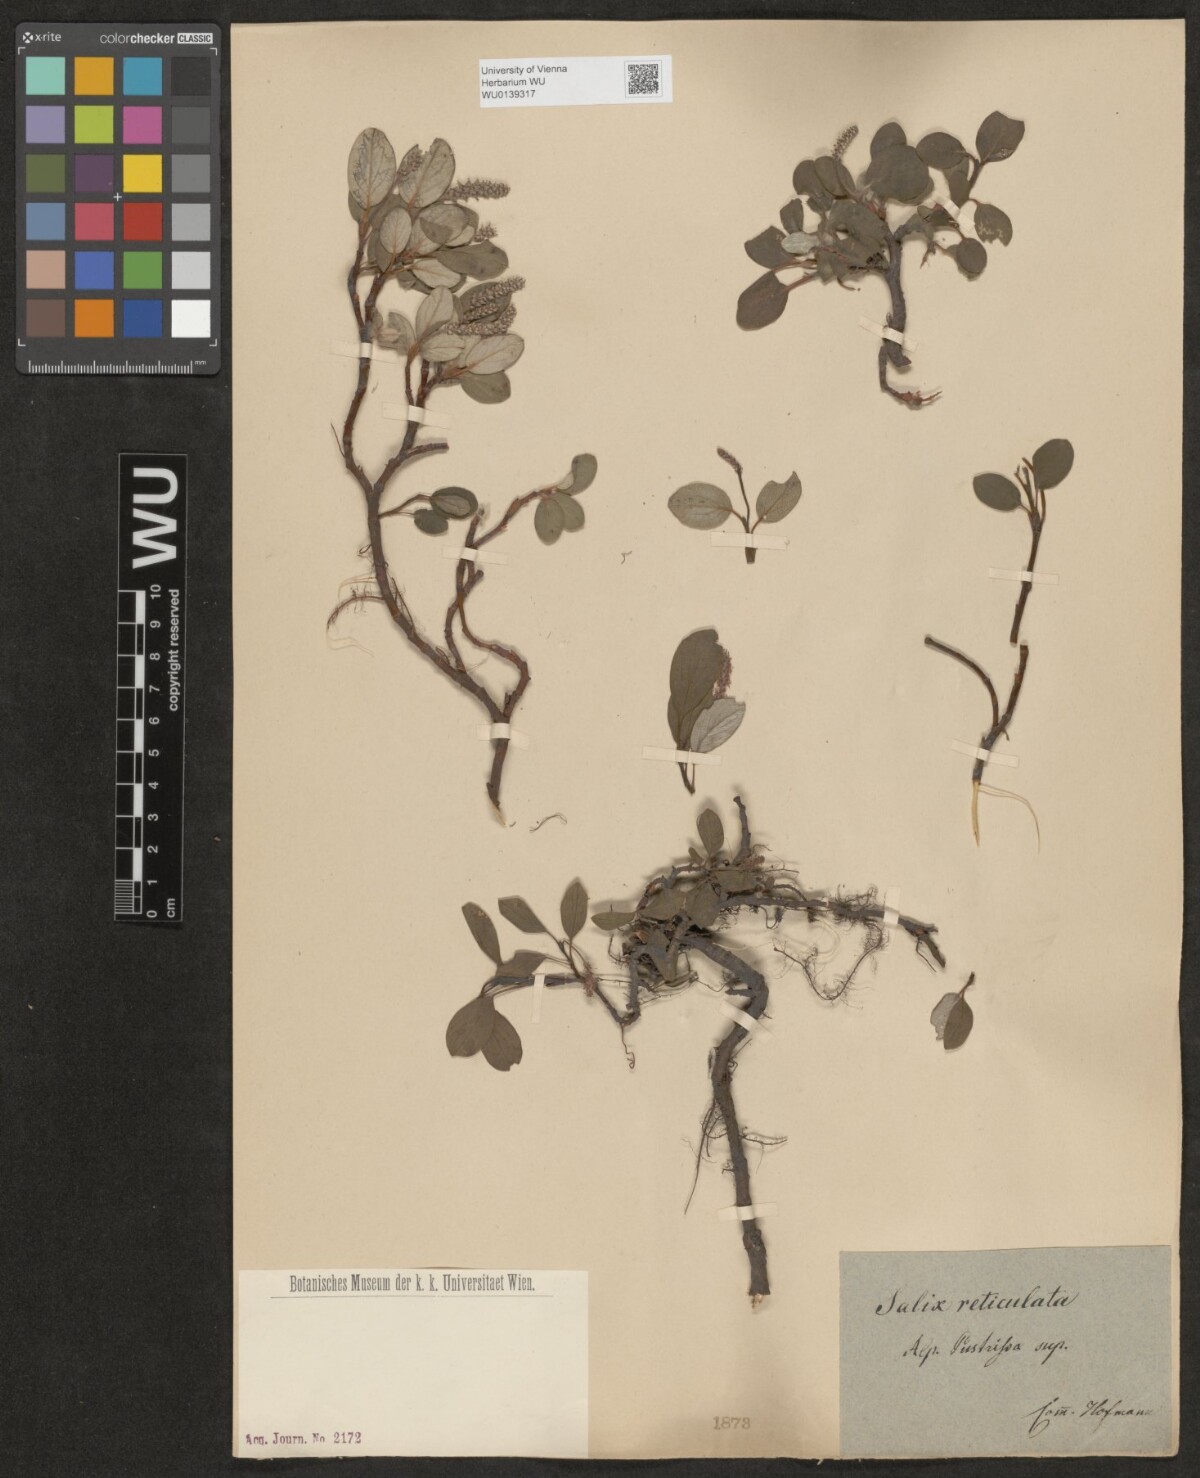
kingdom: Plantae
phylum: Tracheophyta
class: Magnoliopsida
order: Malpighiales
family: Salicaceae
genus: Salix
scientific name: Salix reticulata
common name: Net-leaved willow
